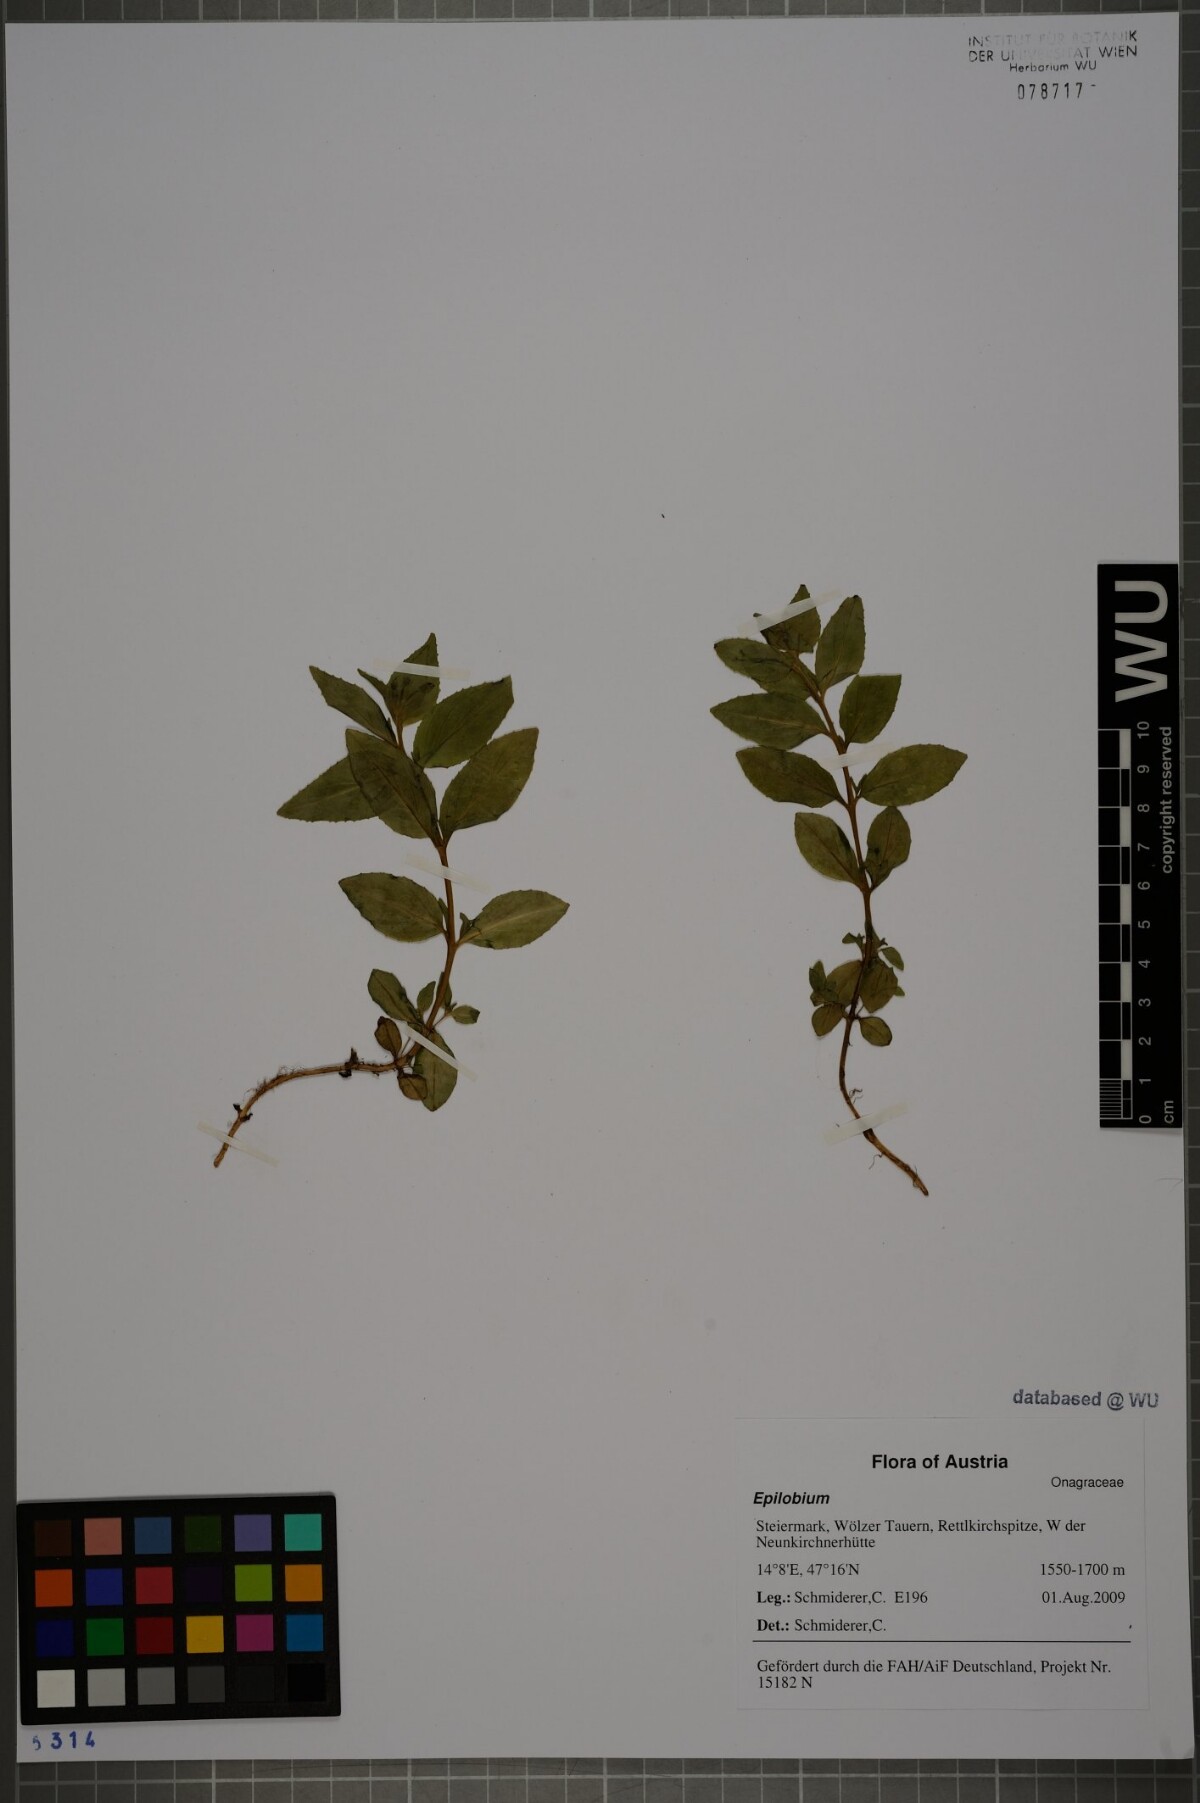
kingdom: Plantae
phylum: Tracheophyta
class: Magnoliopsida
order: Myrtales
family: Onagraceae
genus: Epilobium
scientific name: Epilobium alsinifolium
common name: Chickweed willowherb
